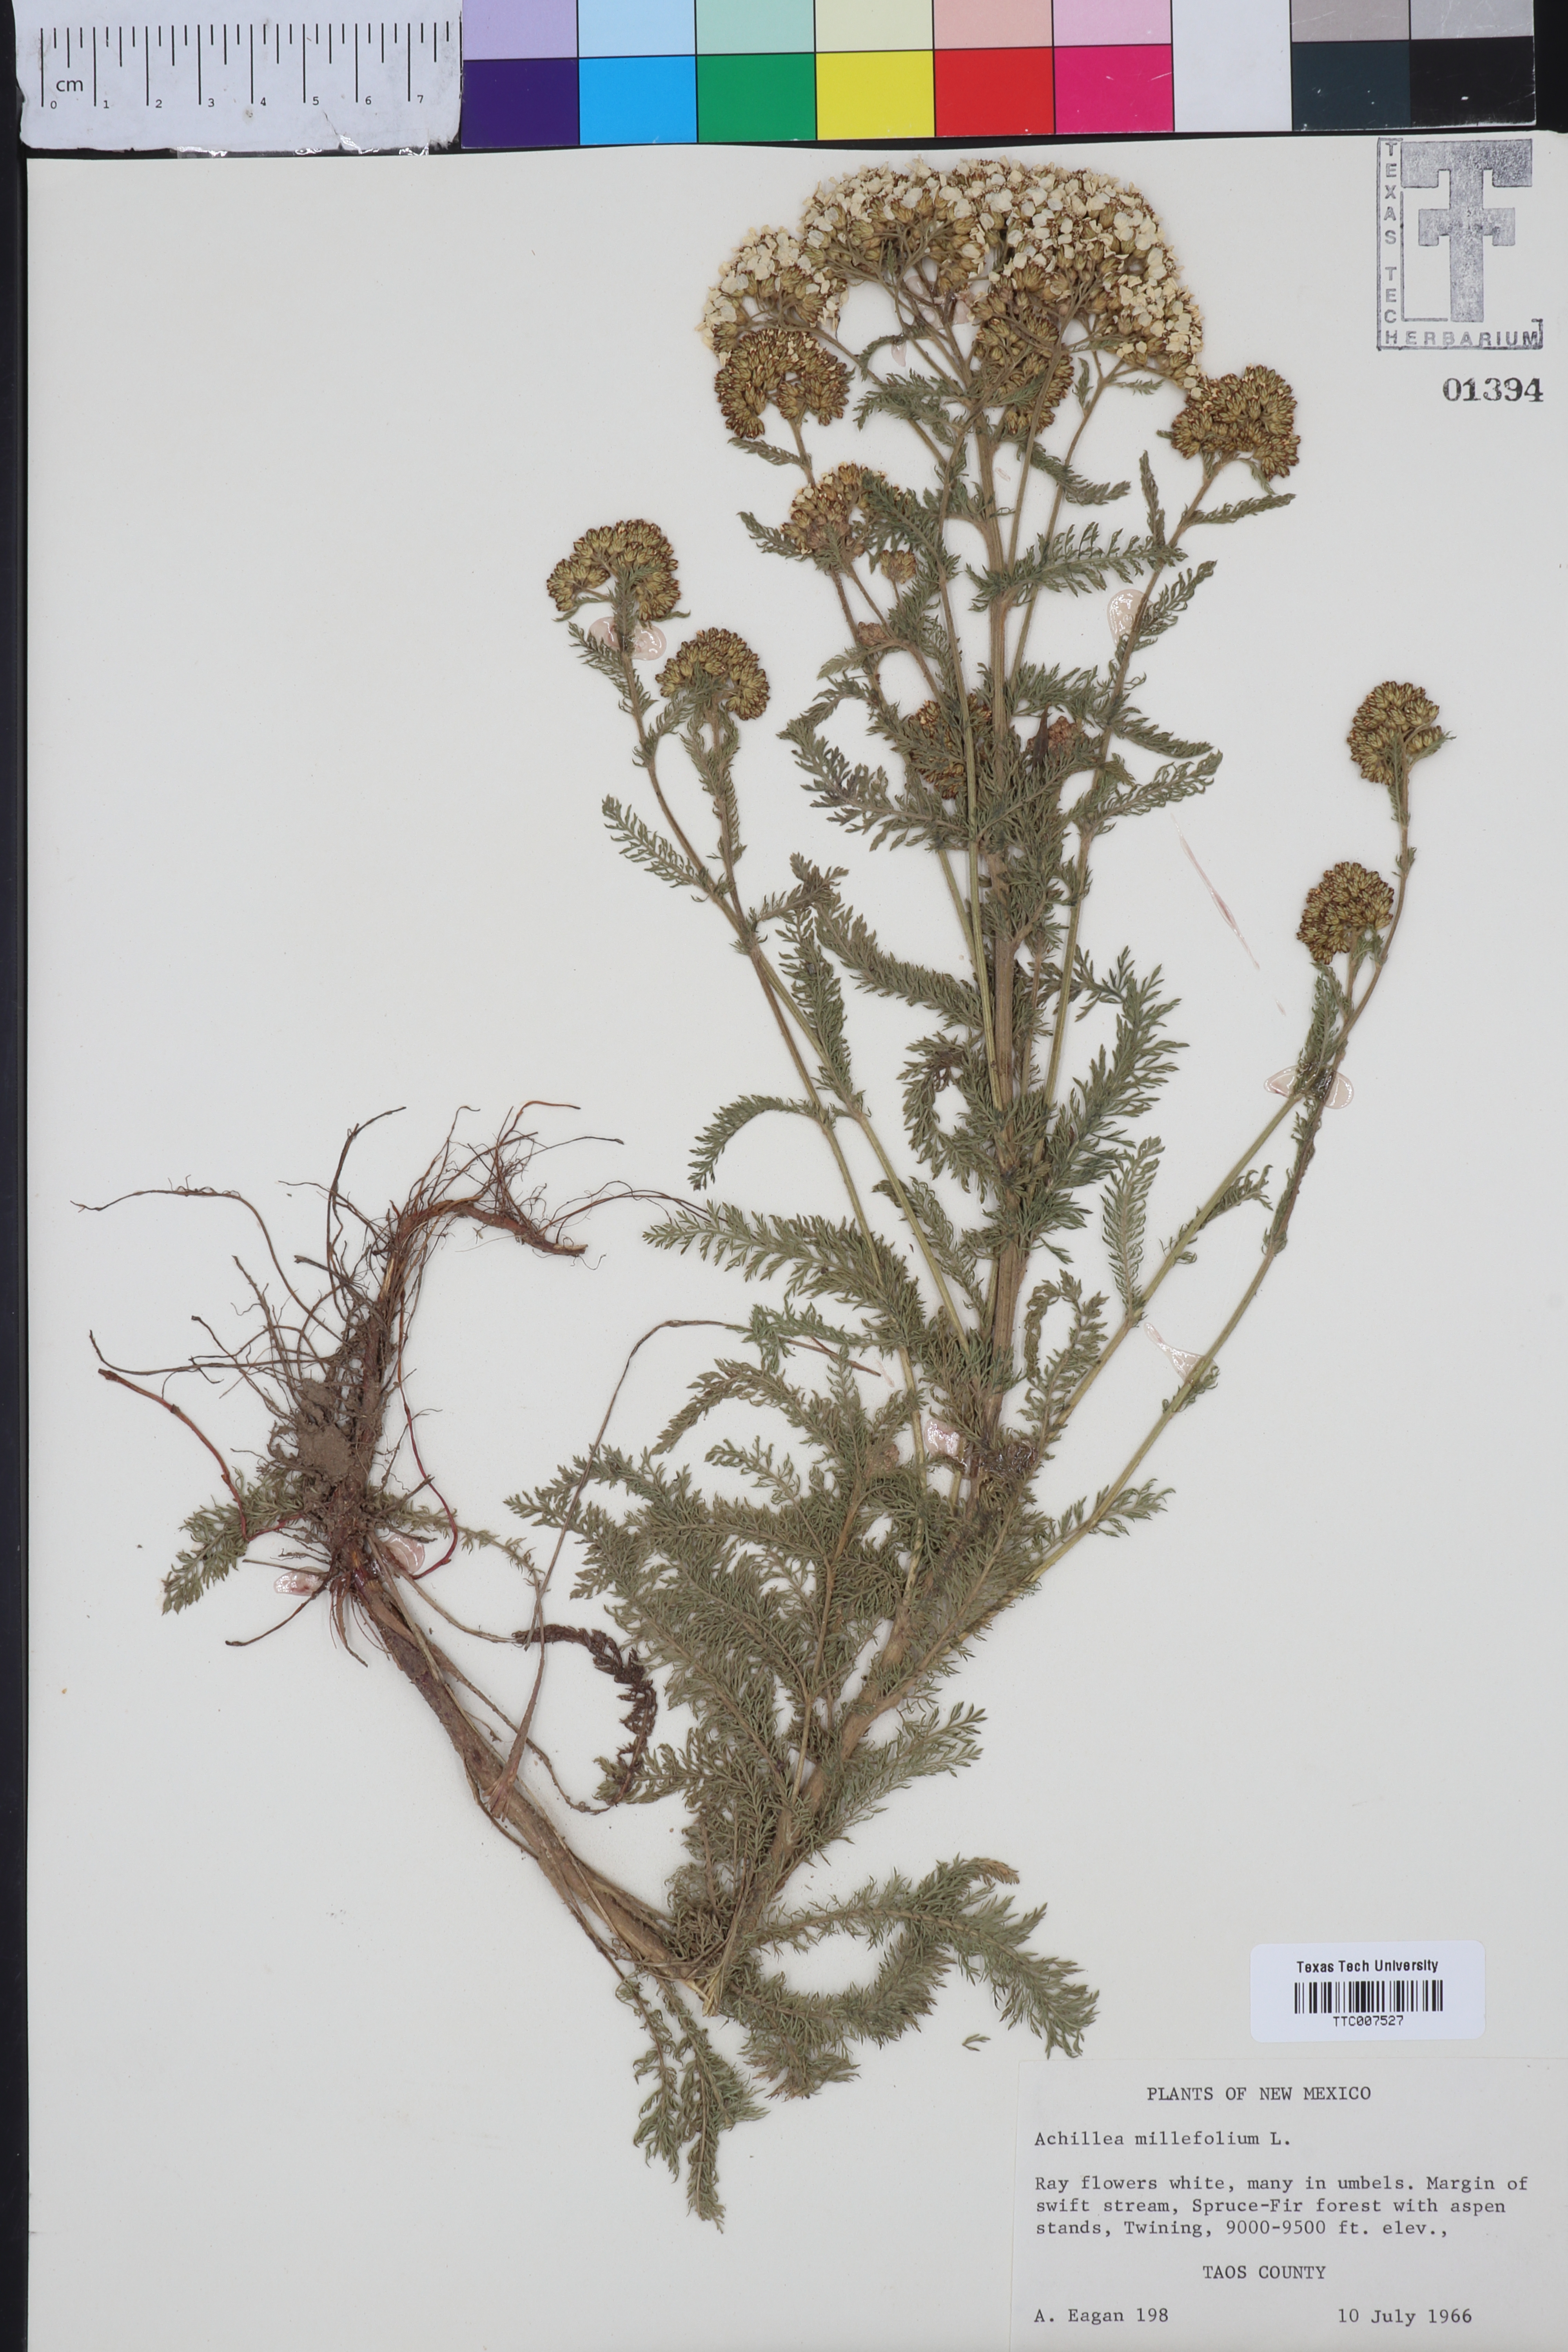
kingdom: Plantae
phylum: Tracheophyta
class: Magnoliopsida
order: Asterales
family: Asteraceae
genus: Achillea
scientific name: Achillea millefolium
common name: Yarrow
